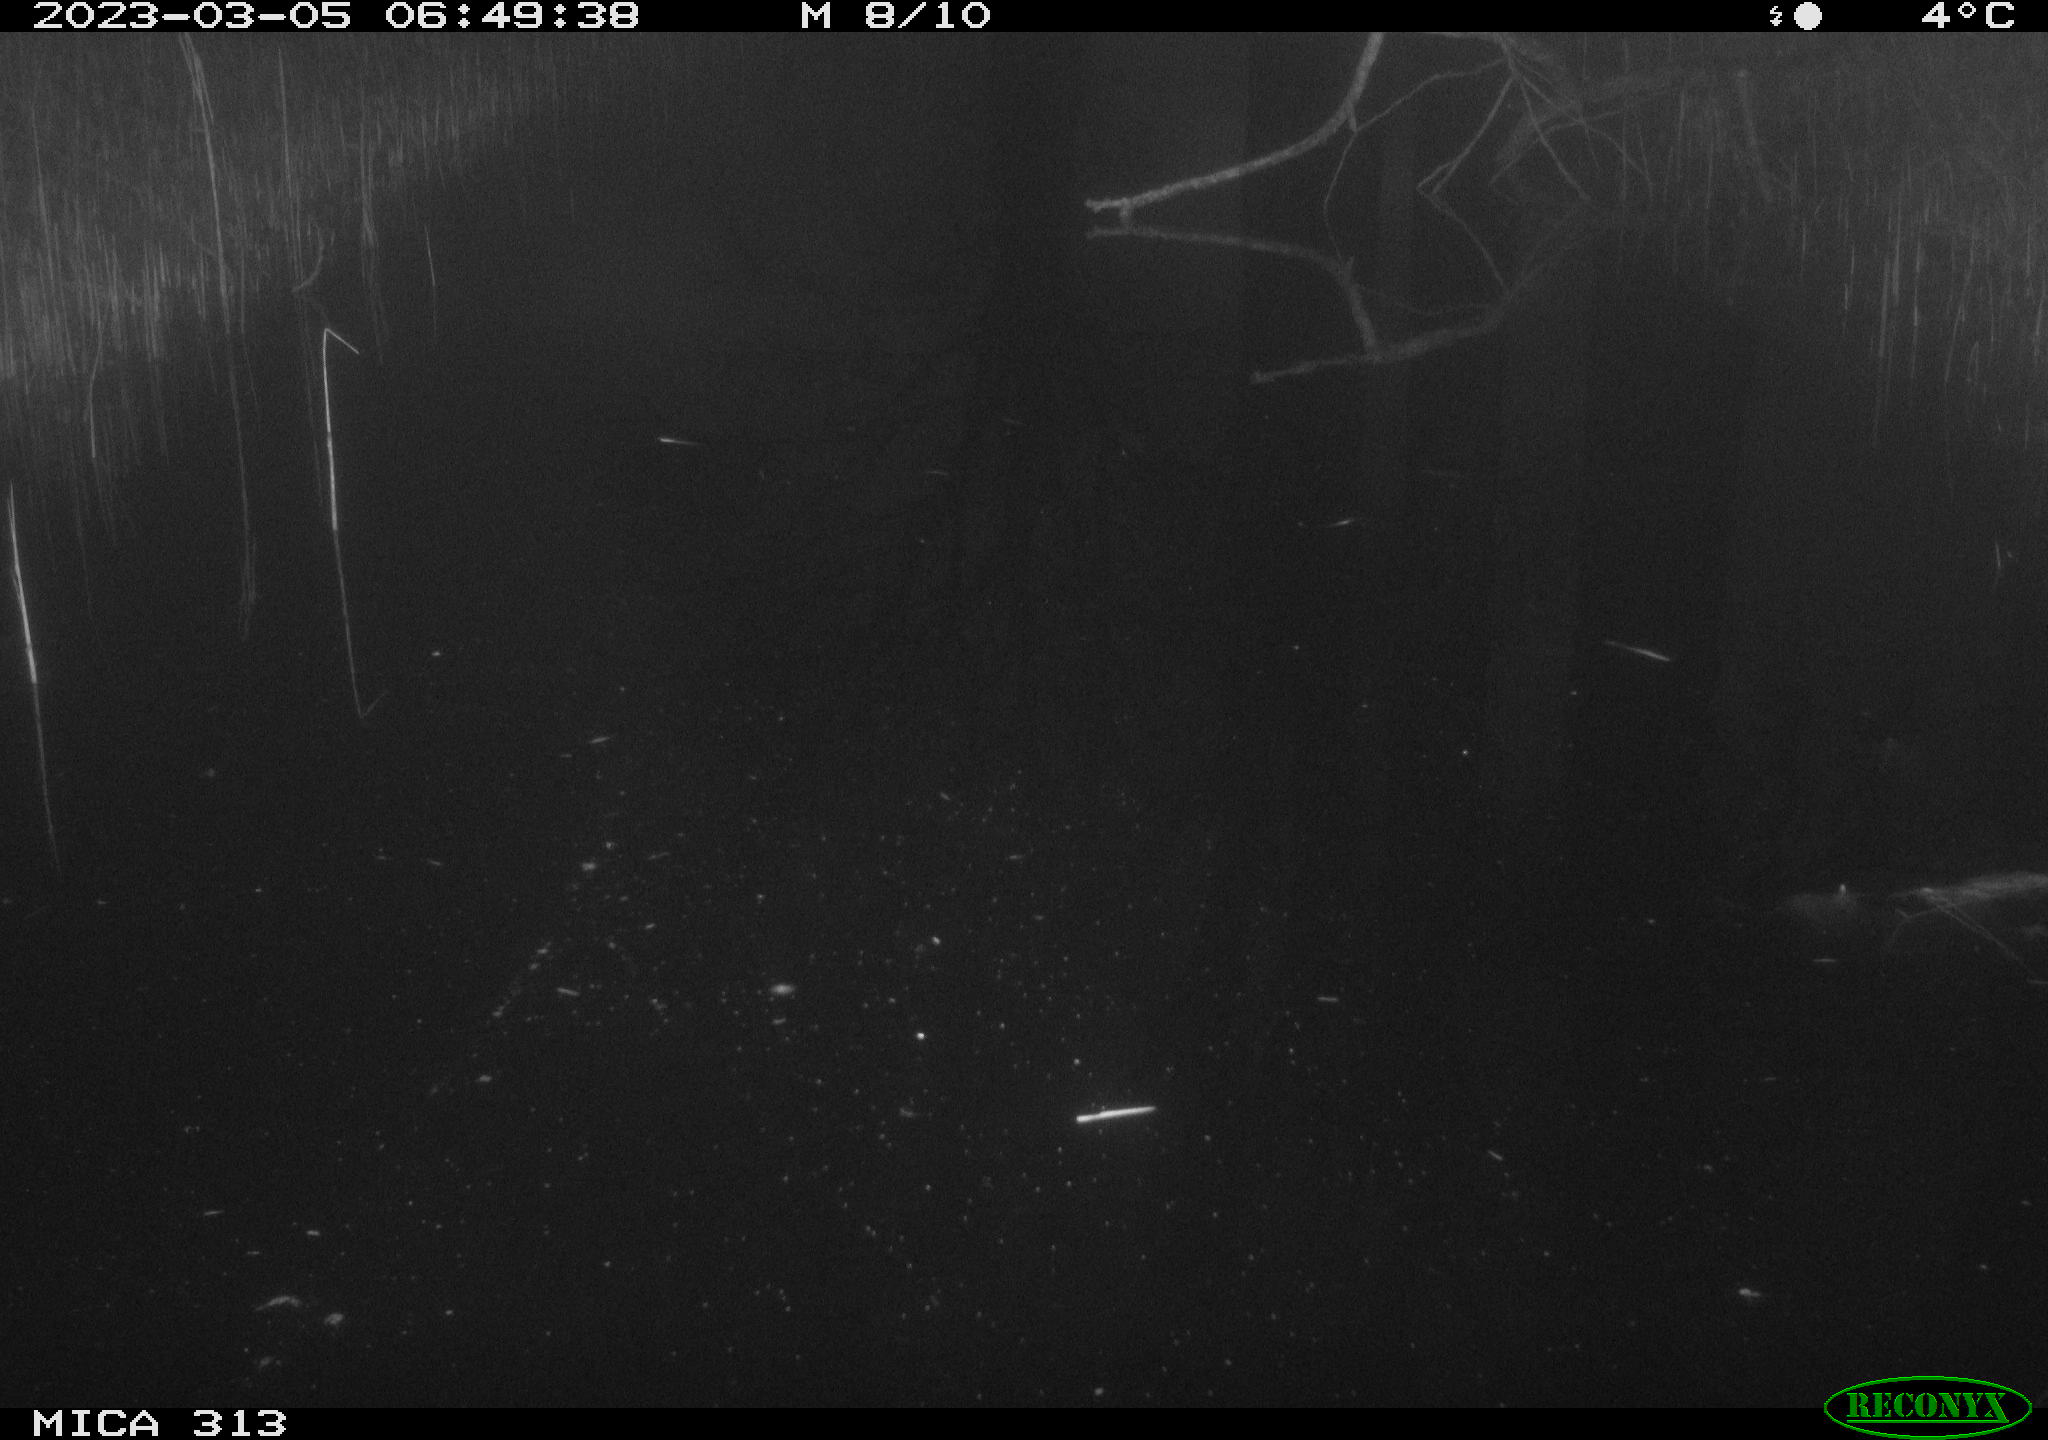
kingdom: Animalia
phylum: Chordata
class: Aves
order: Gruiformes
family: Rallidae
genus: Gallinula
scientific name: Gallinula chloropus
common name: Common moorhen
